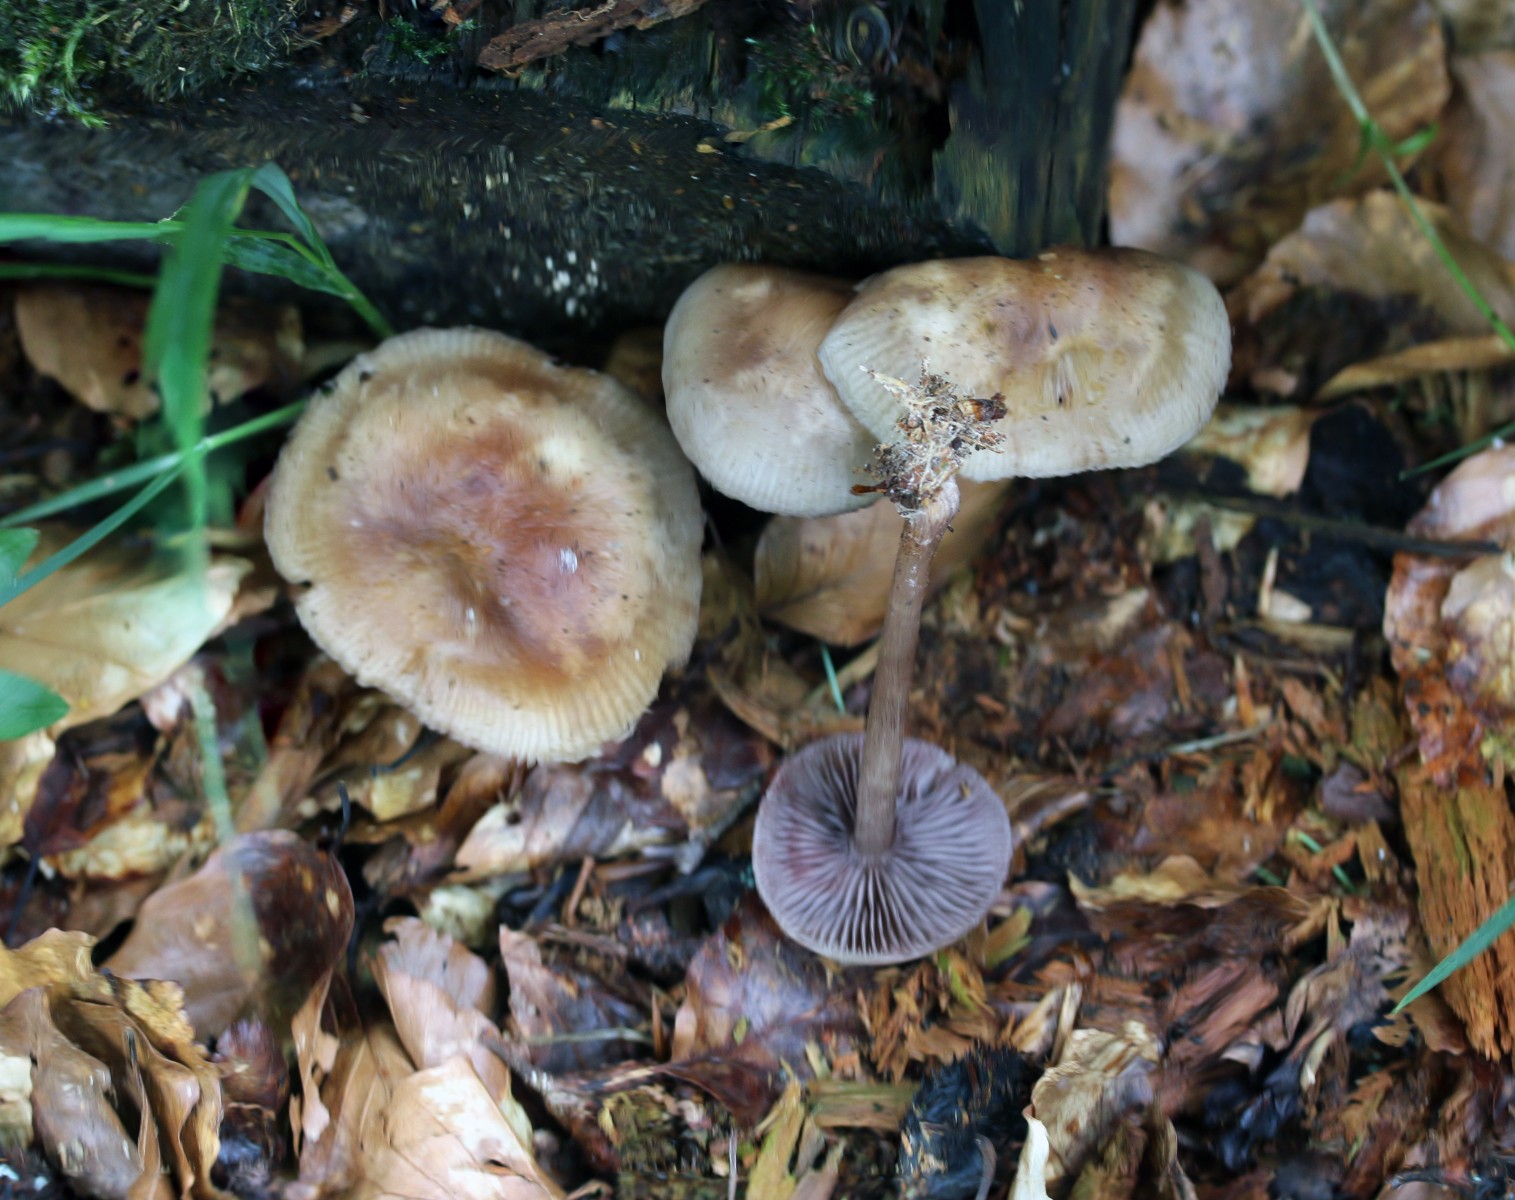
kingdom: Fungi
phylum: Basidiomycota
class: Agaricomycetes
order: Agaricales
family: Mycenaceae
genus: Mycena
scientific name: Mycena pelianthina
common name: mørkbladet huesvamp
